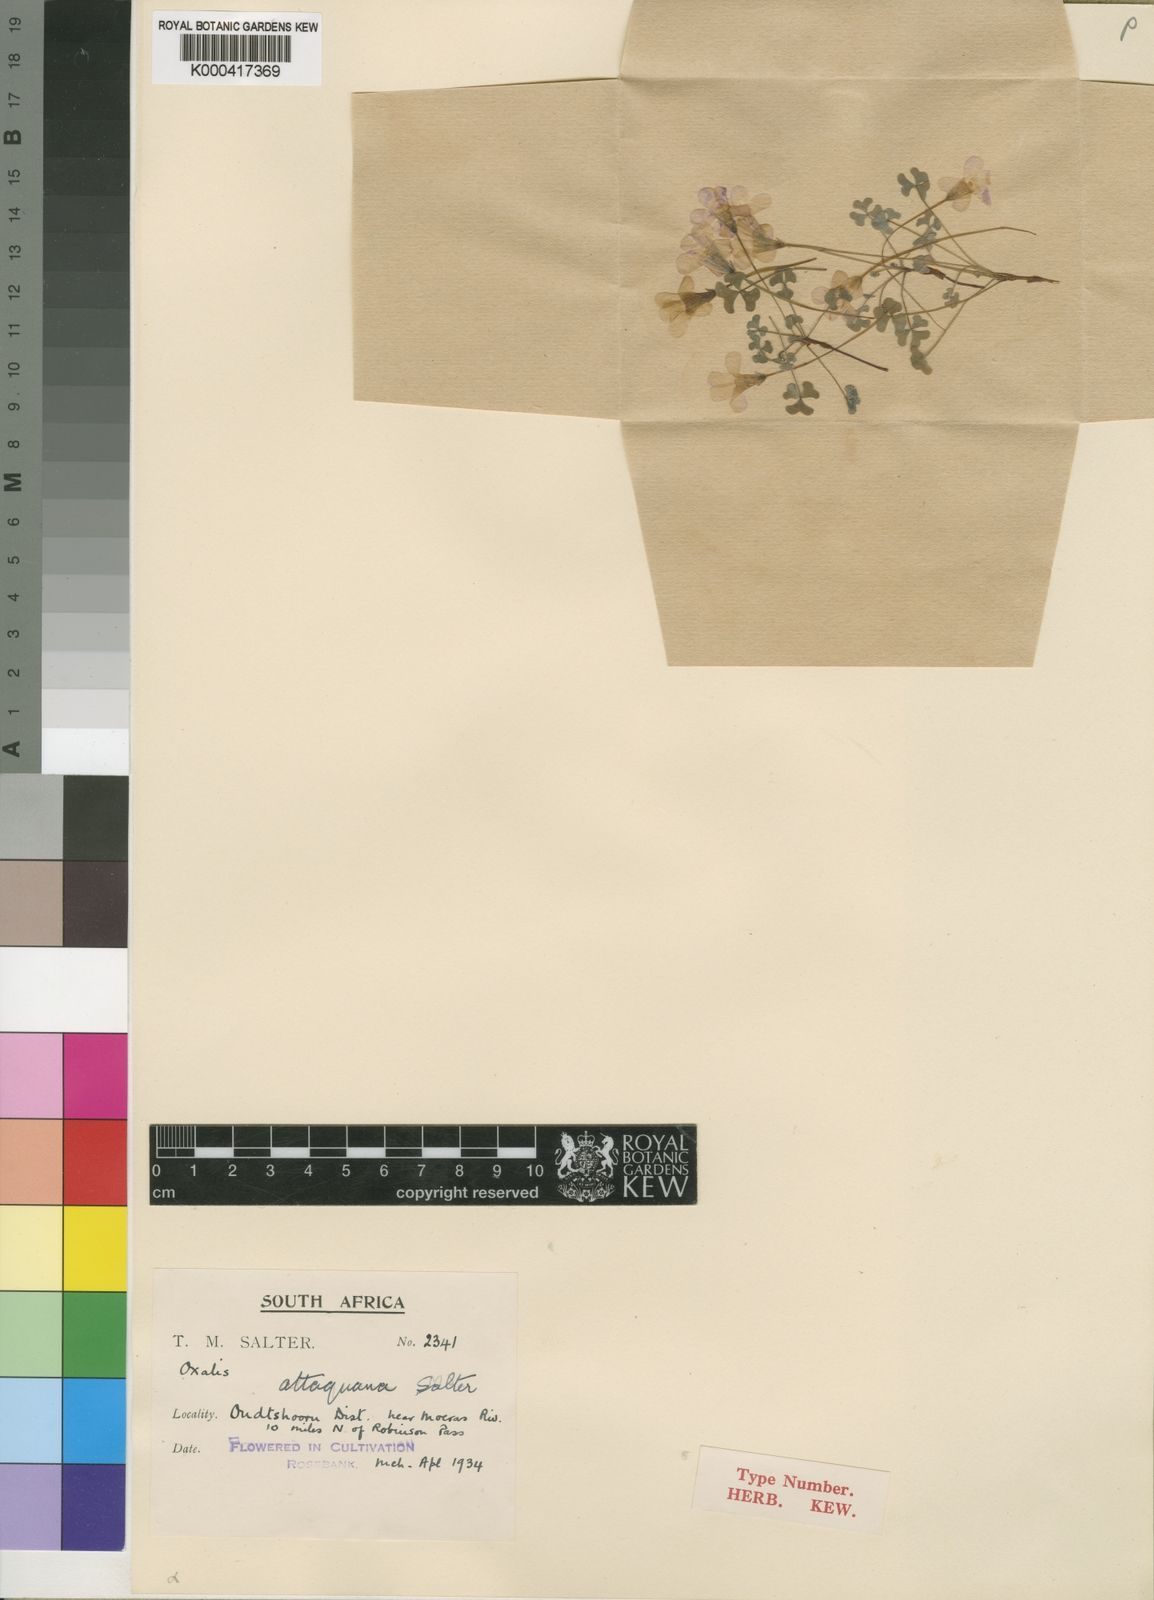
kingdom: Plantae
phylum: Tracheophyta
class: Magnoliopsida
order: Oxalidales
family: Oxalidaceae
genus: Oxalis
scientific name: Oxalis attaquana
